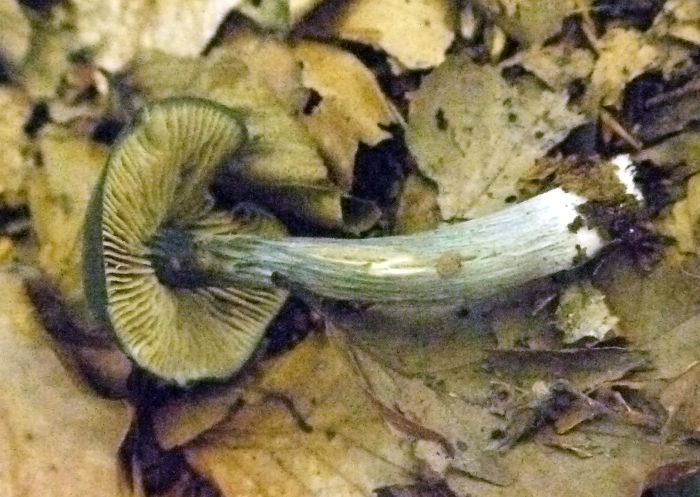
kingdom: Fungi
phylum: Basidiomycota
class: Agaricomycetes
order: Agaricales
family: Entolomataceae
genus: Entocybe
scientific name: Entocybe nitida
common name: stålblå rødblad
